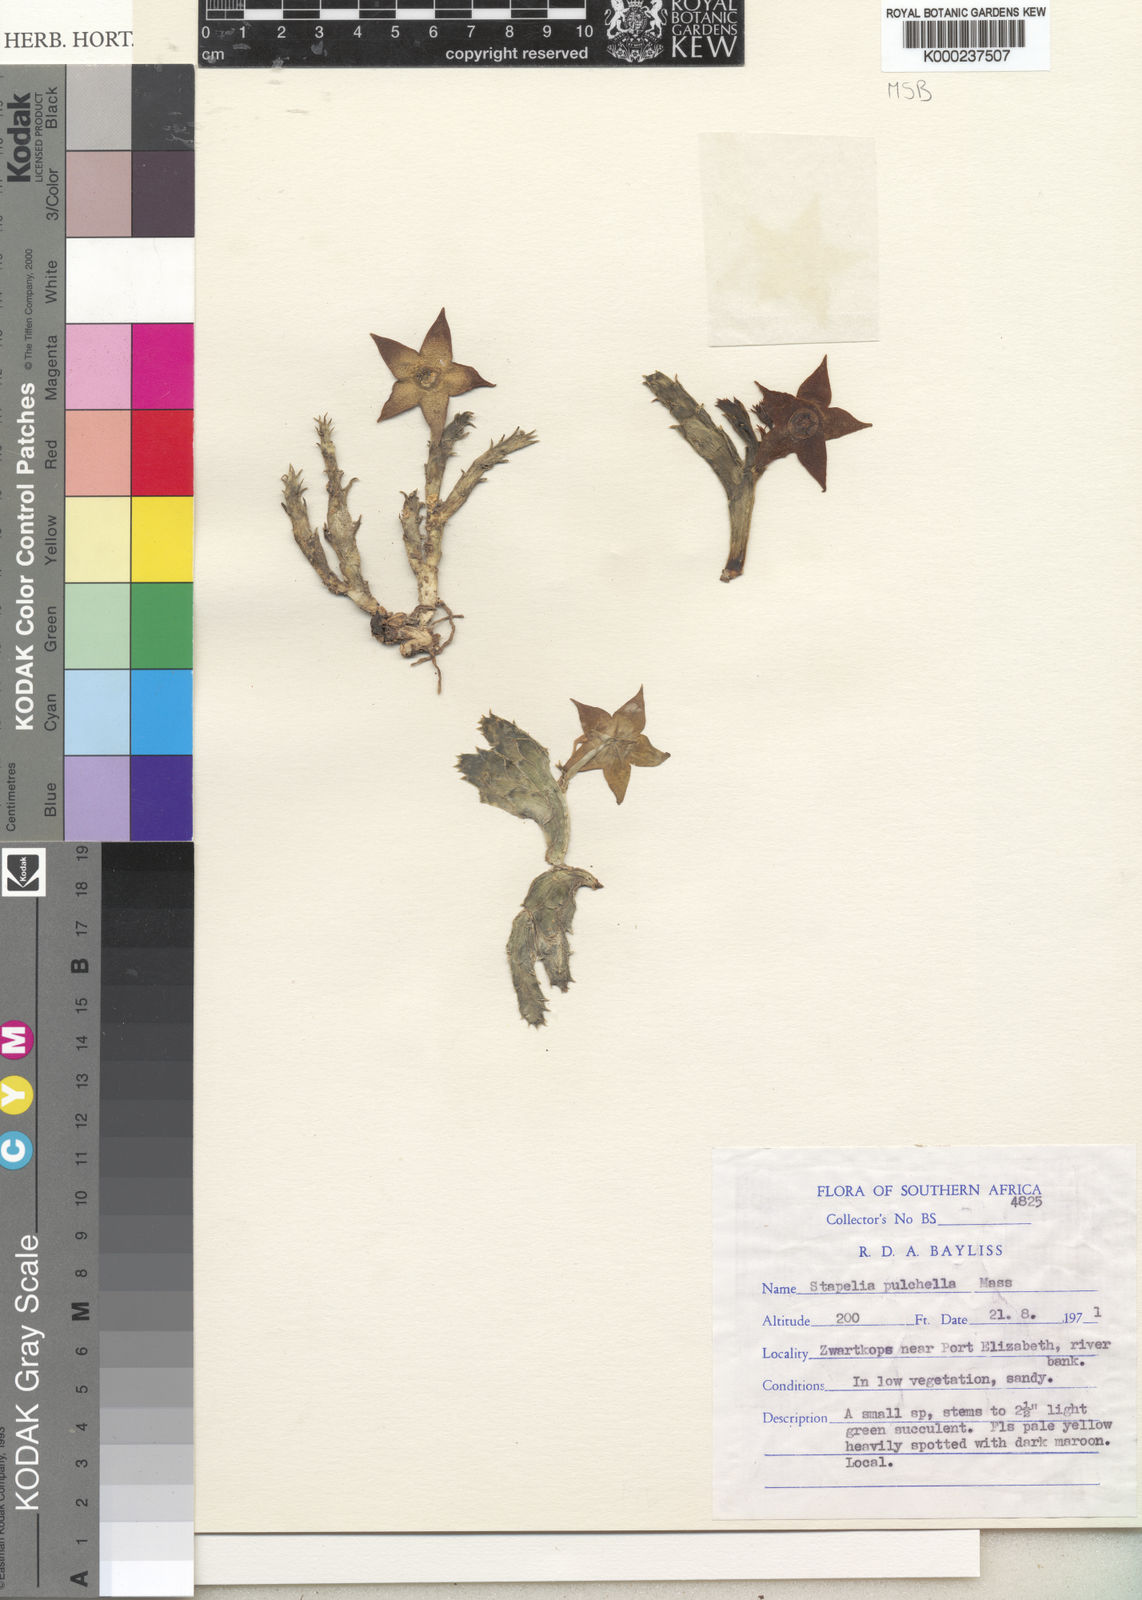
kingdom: Plantae
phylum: Tracheophyta
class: Magnoliopsida
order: Gentianales
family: Apocynaceae
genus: Ceropegia
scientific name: Ceropegia pulchella
